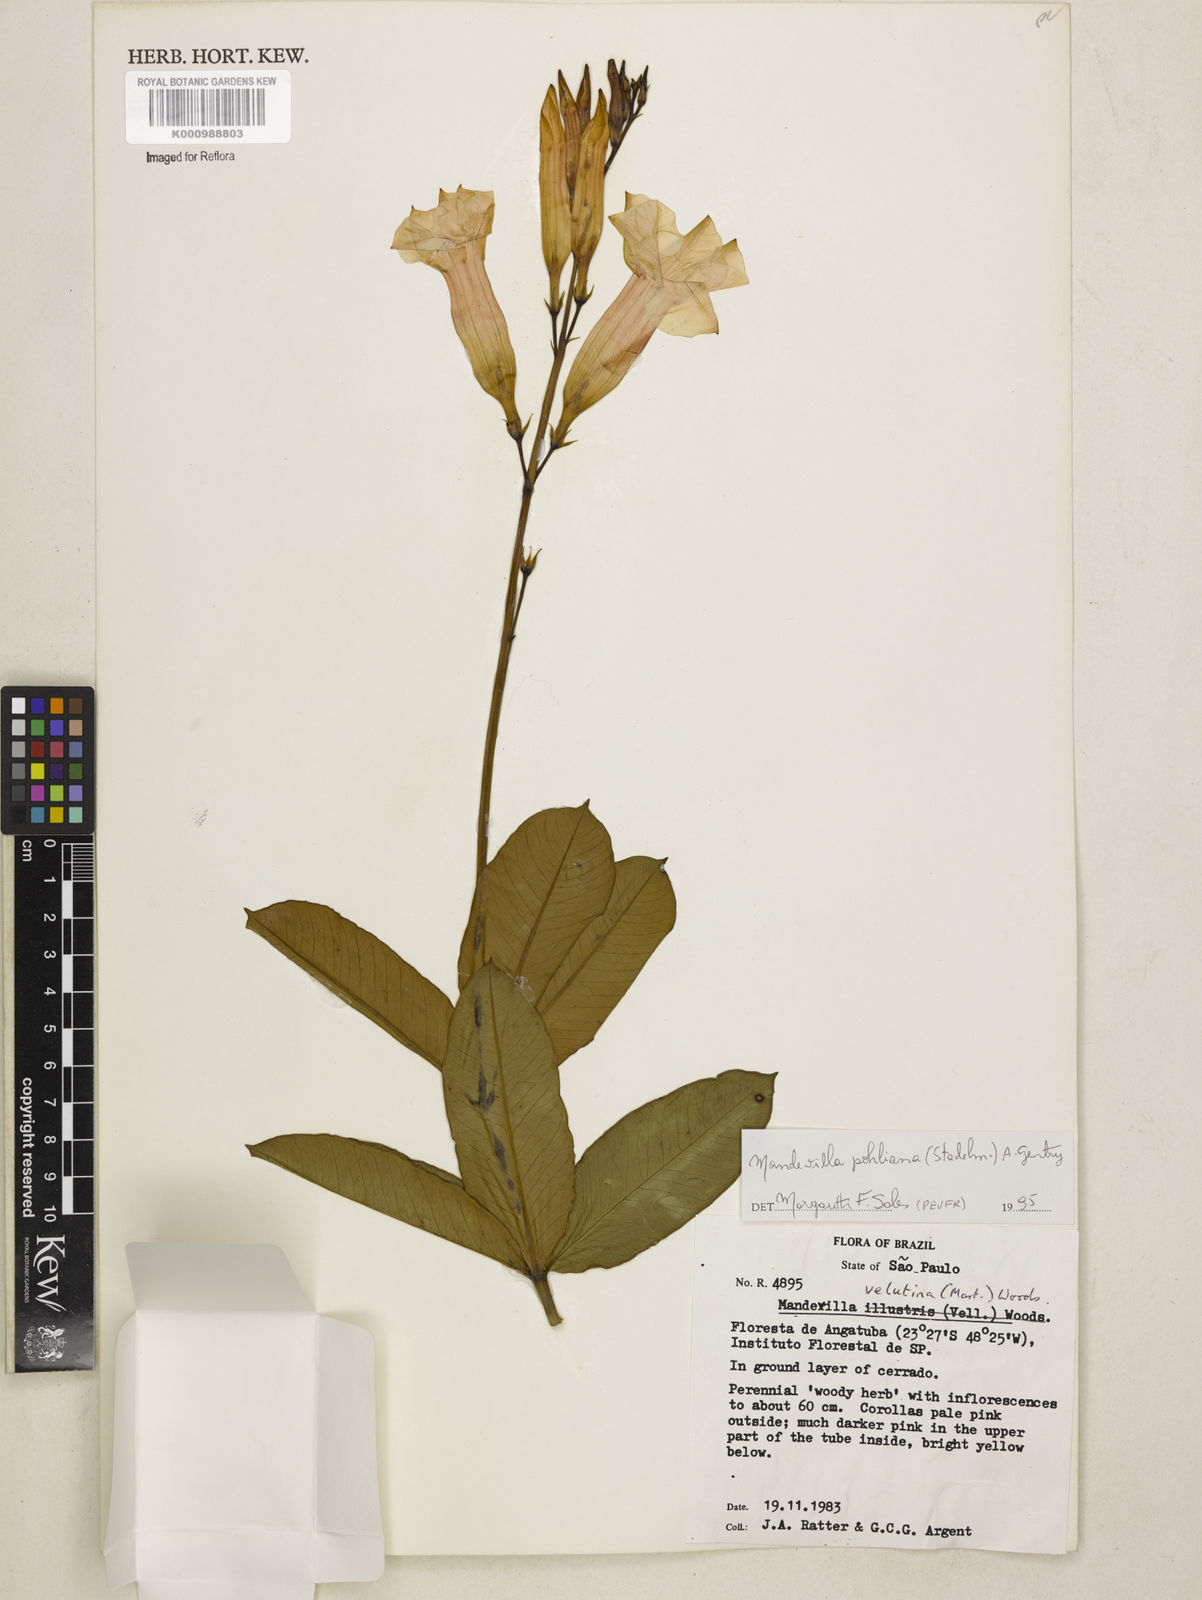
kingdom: Plantae
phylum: Tracheophyta
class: Magnoliopsida
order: Gentianales
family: Apocynaceae
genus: Mandevilla
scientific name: Mandevilla pohliana
